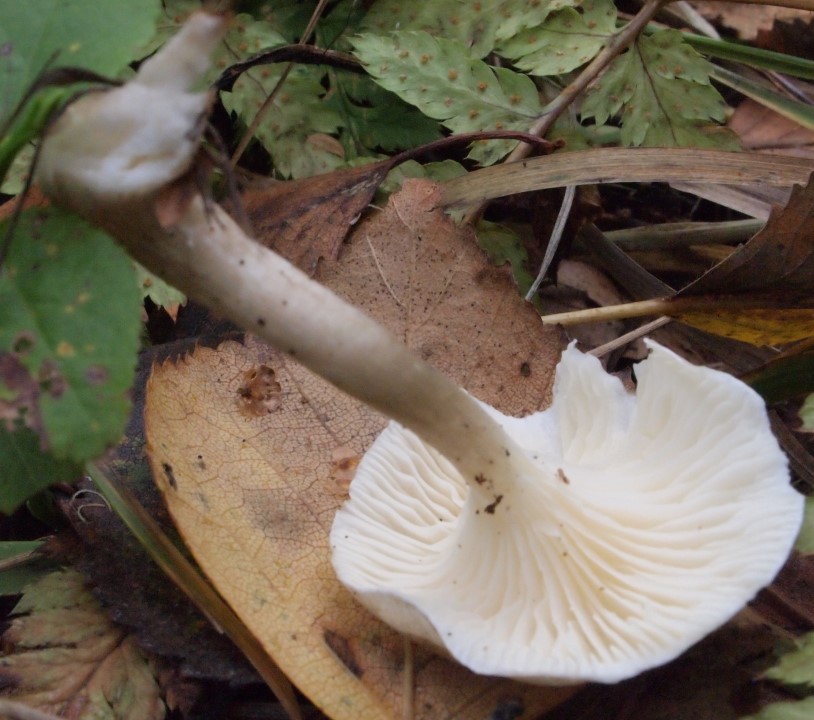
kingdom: Fungi
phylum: Basidiomycota
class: Agaricomycetes
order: Agaricales
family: Hygrophoraceae
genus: Spodocybe
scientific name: Spodocybe trulliformis
